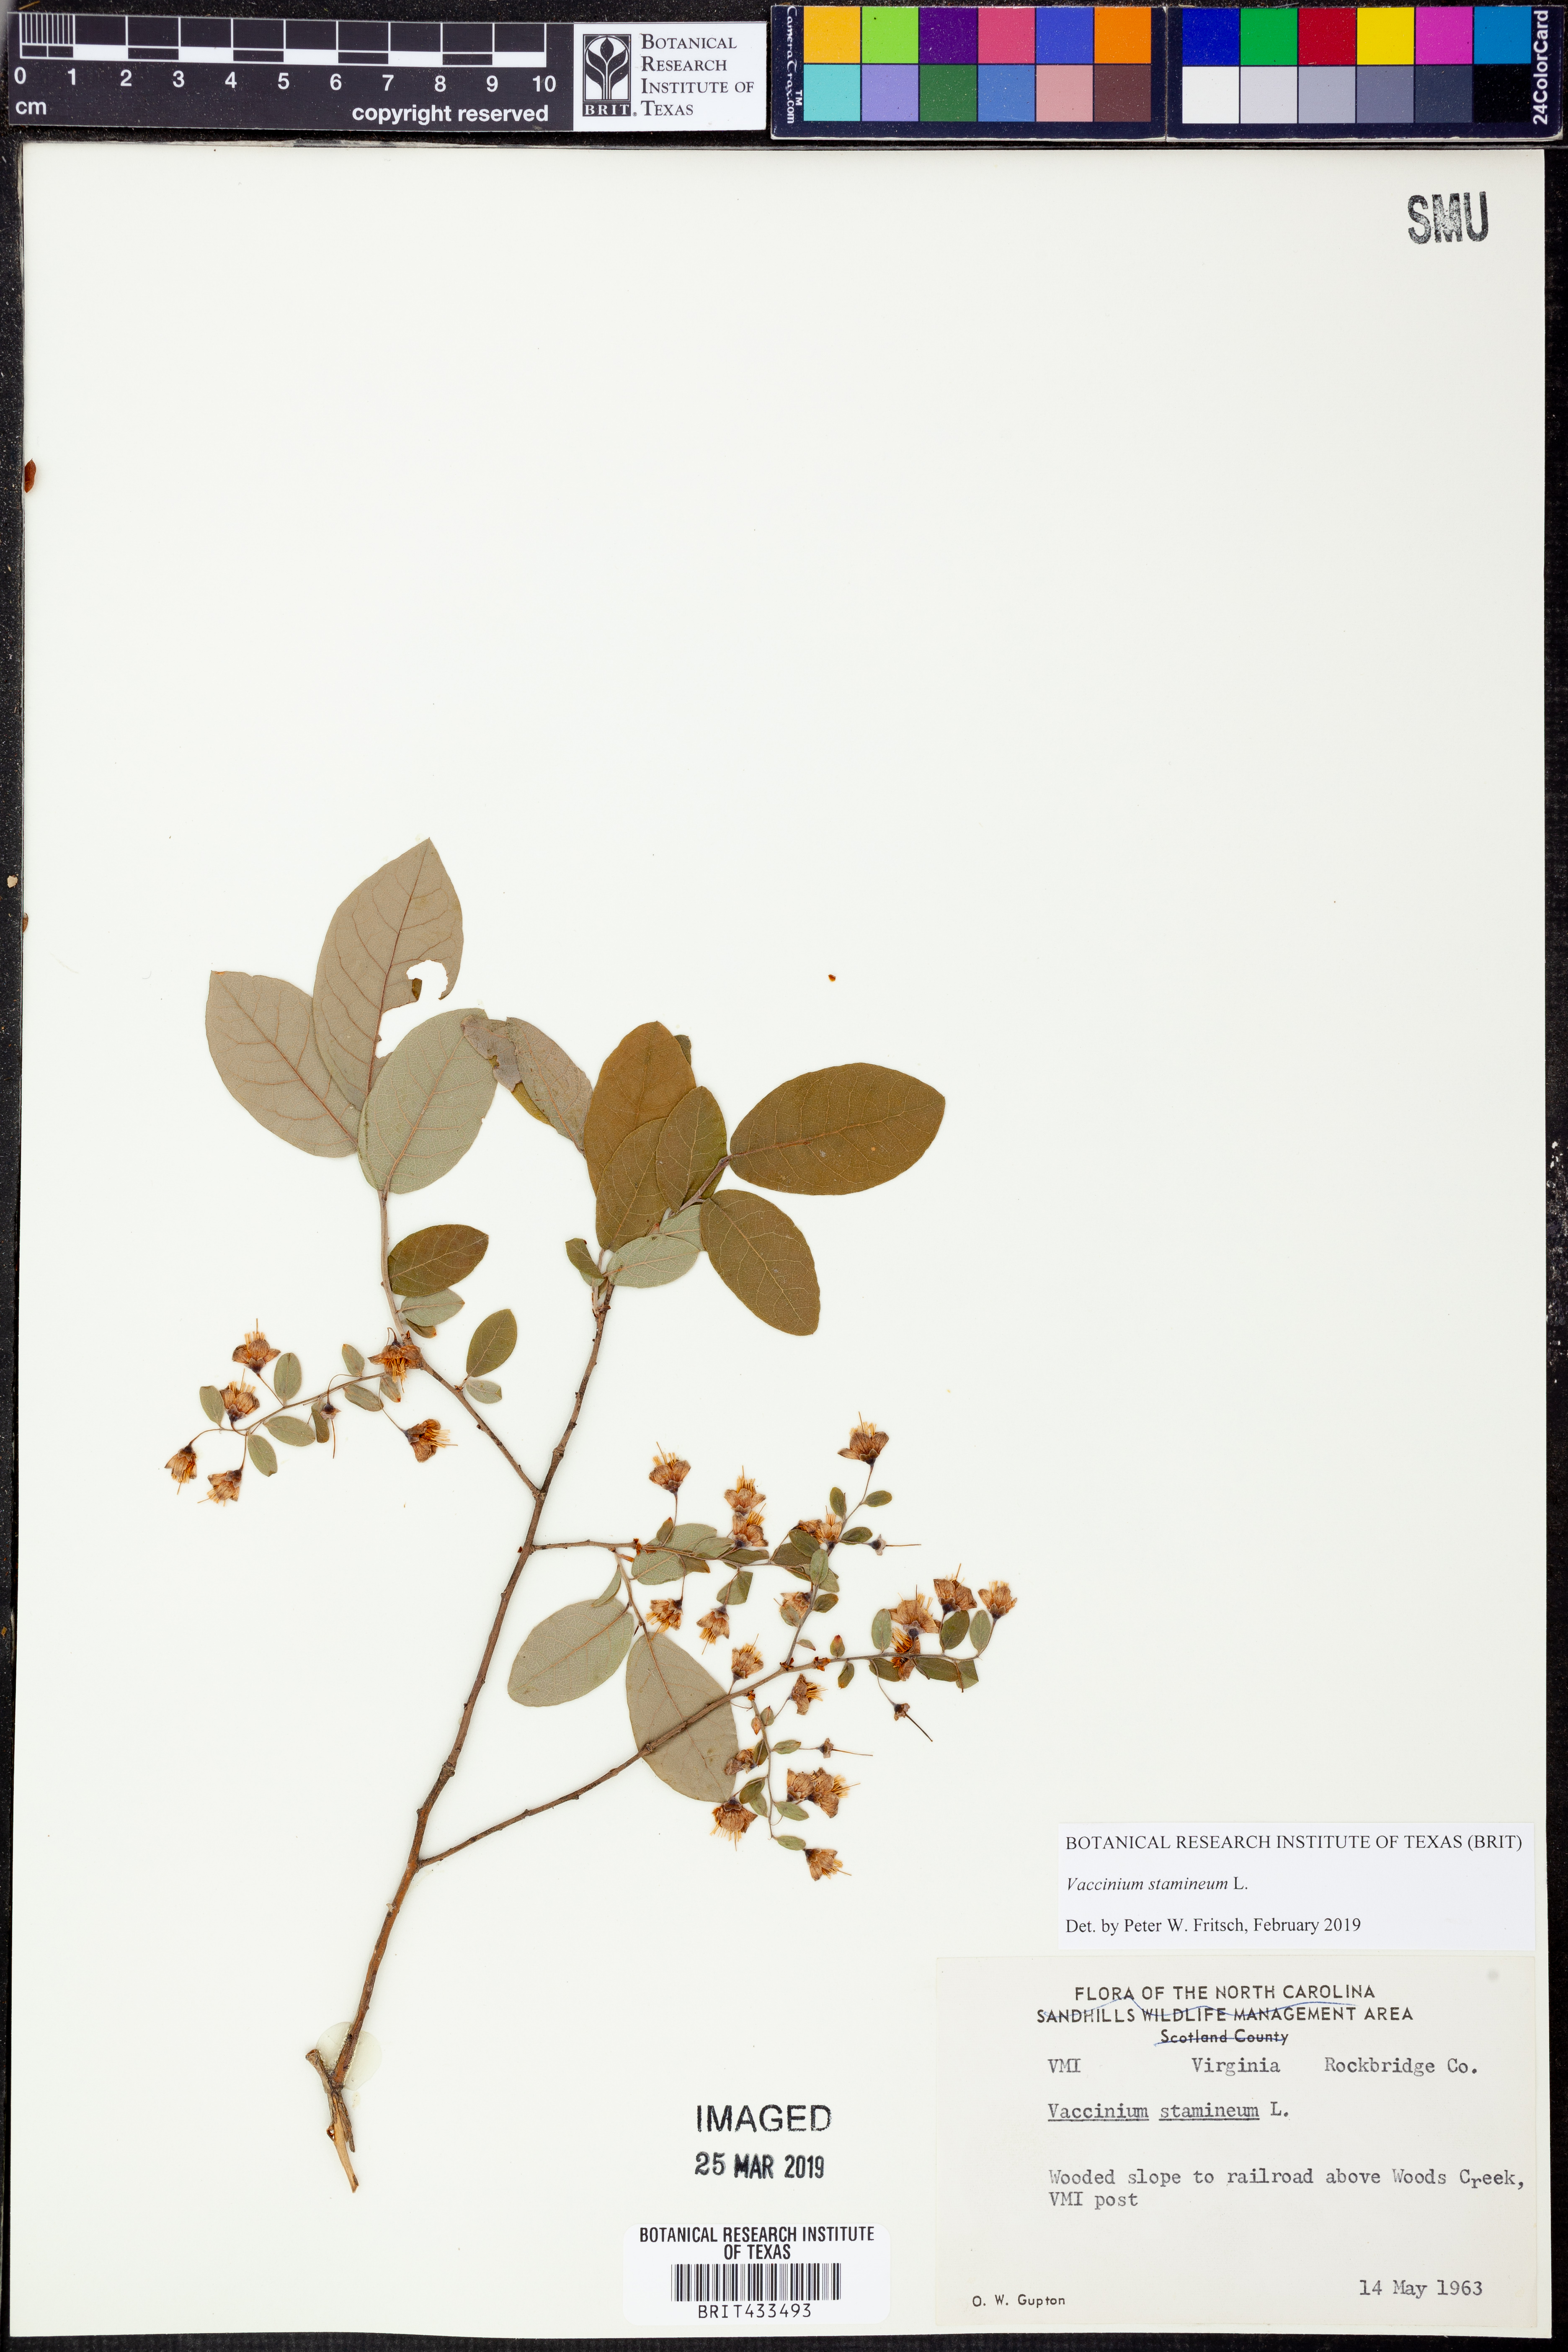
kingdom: Plantae
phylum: Tracheophyta
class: Magnoliopsida
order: Ericales
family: Ericaceae
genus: Vaccinium
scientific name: Vaccinium stamineum
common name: Deerberry
